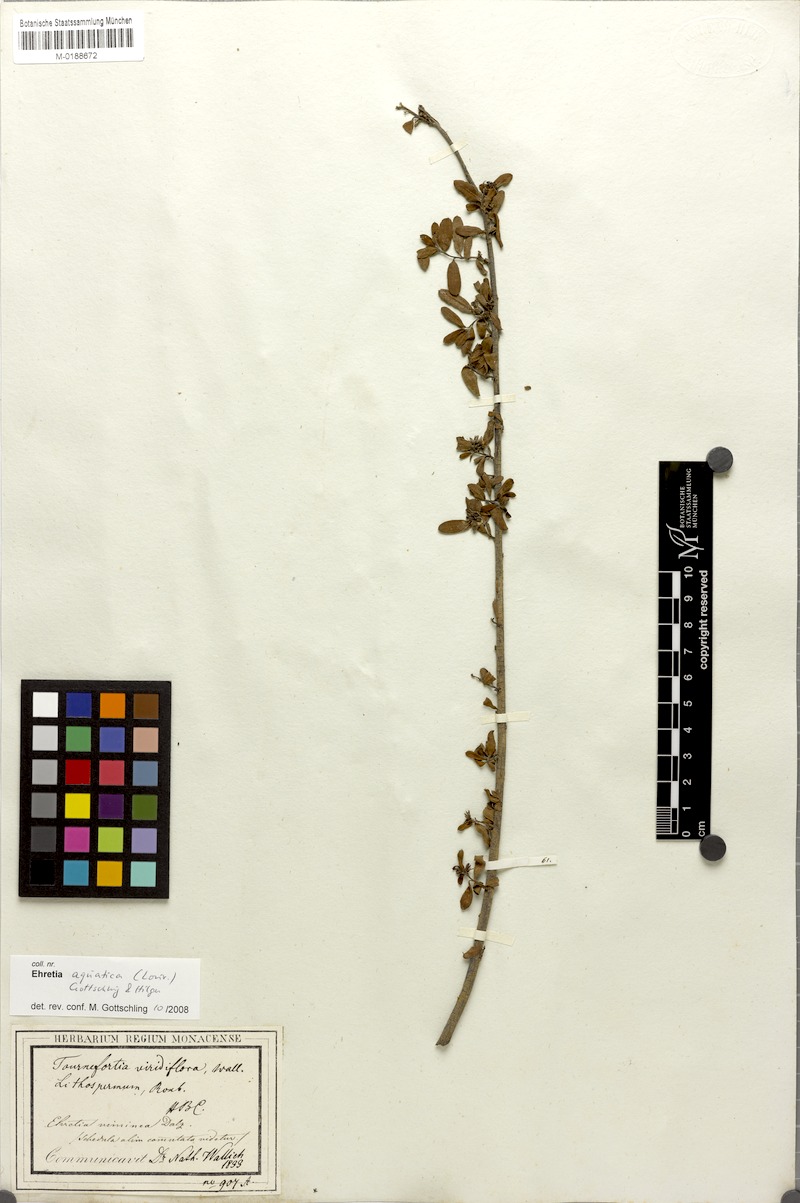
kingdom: Plantae
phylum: Tracheophyta
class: Magnoliopsida
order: Boraginales
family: Ehretiaceae
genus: Ehretia
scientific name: Ehretia aquatica
